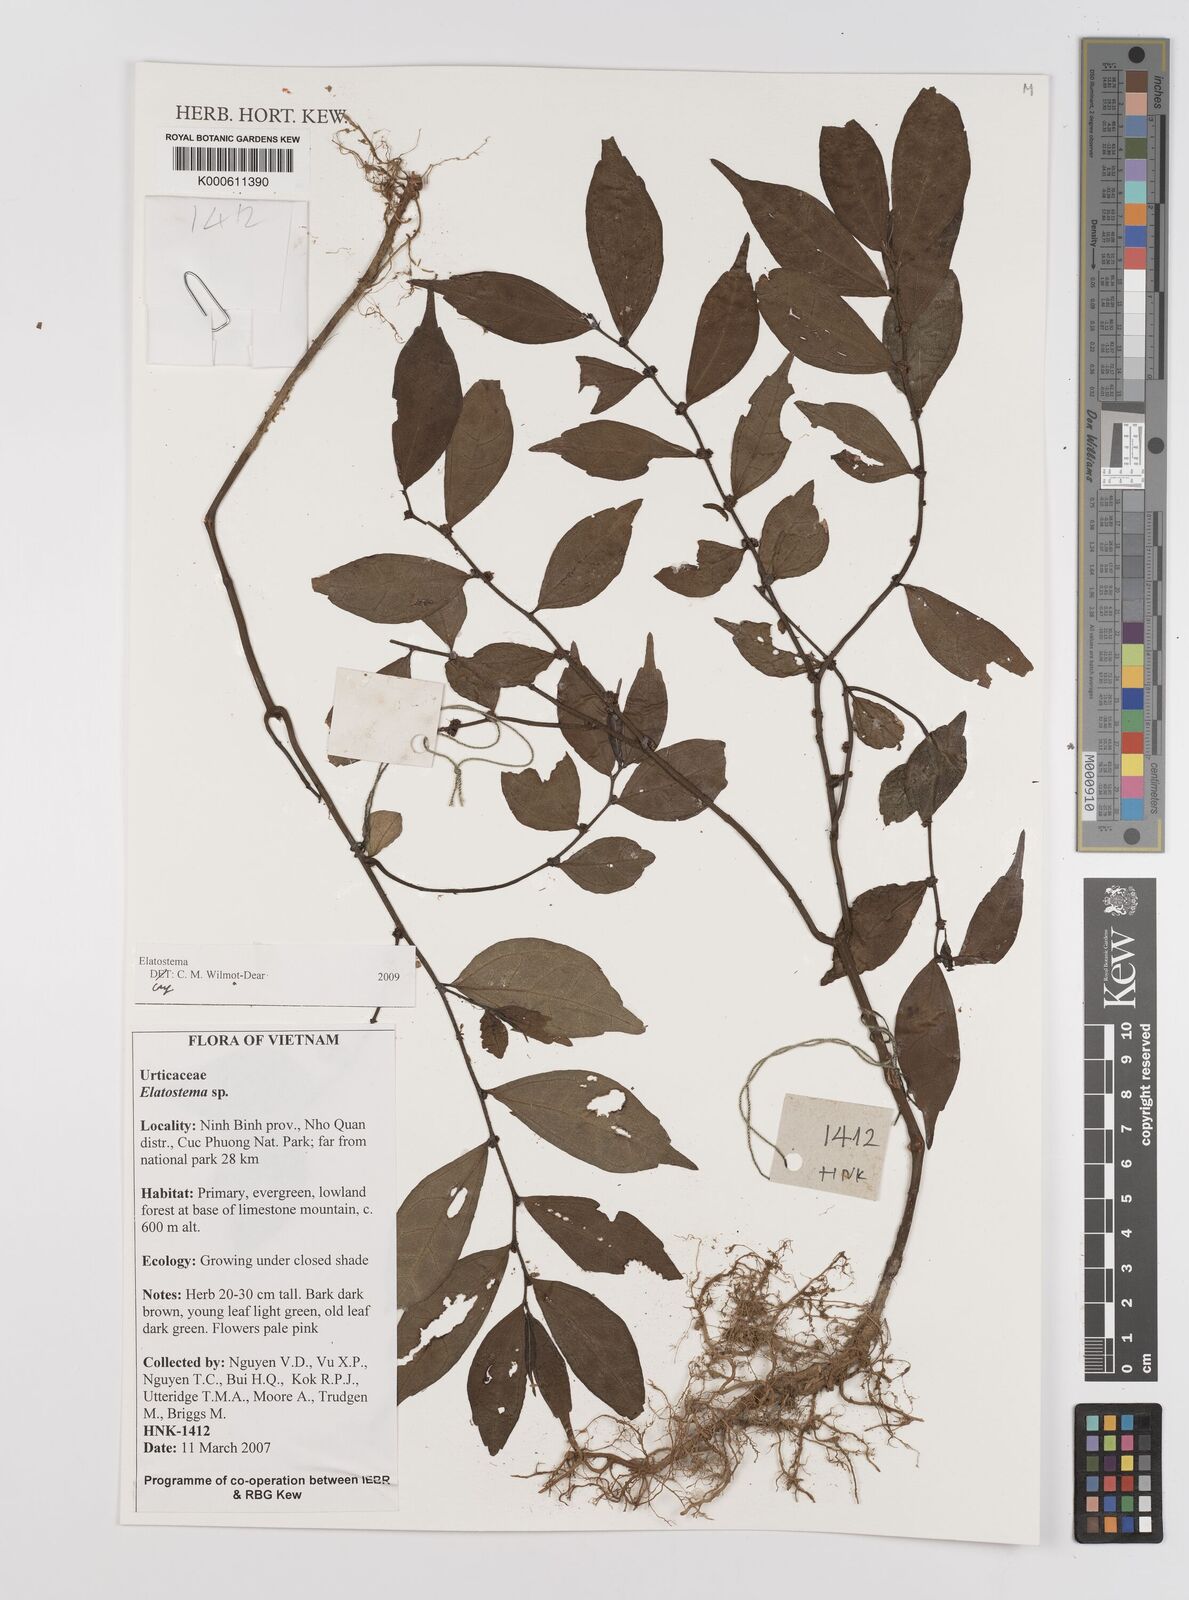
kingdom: Plantae
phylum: Tracheophyta
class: Magnoliopsida
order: Rosales
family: Urticaceae
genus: Elatostema
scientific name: Elatostema
